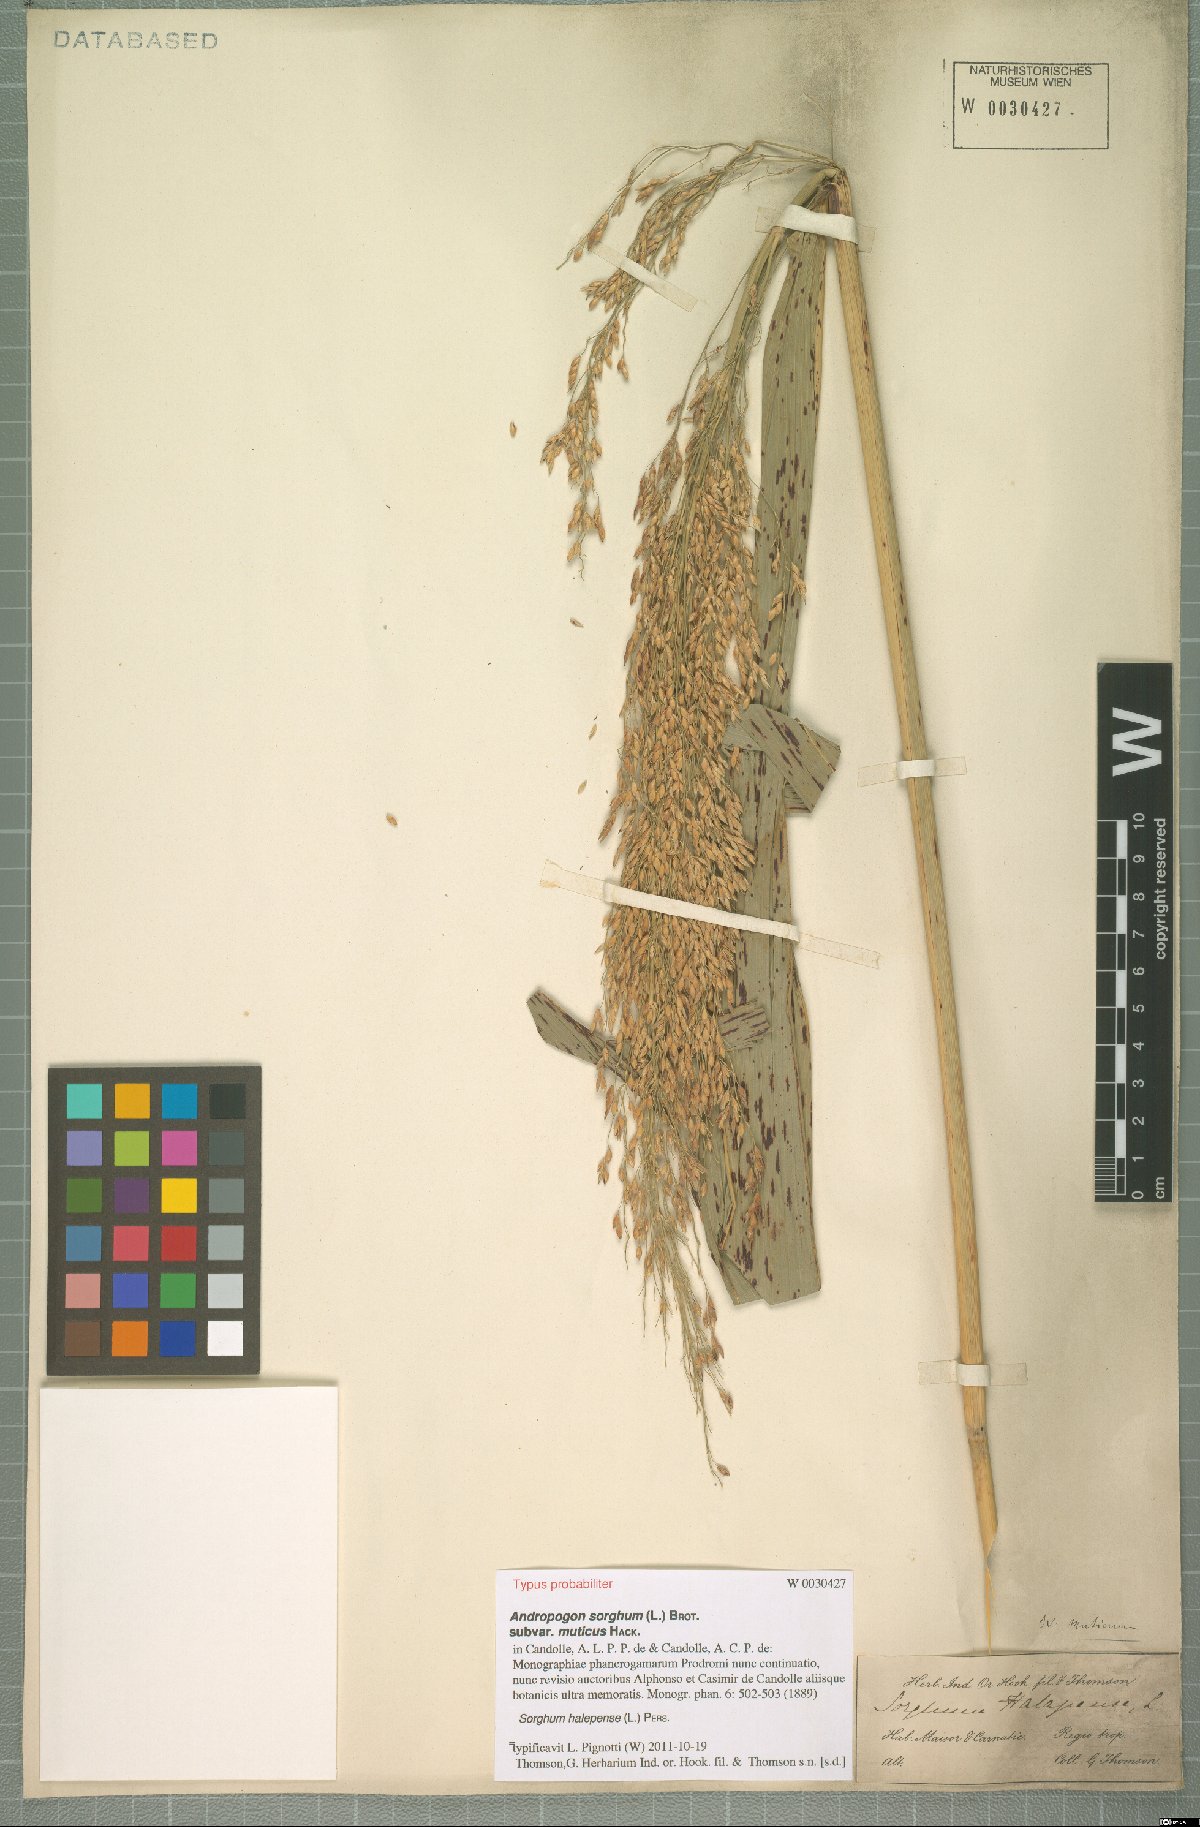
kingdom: Plantae
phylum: Tracheophyta
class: Liliopsida
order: Poales
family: Poaceae
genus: Sorghum
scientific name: Sorghum halepense
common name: Johnson-grass
